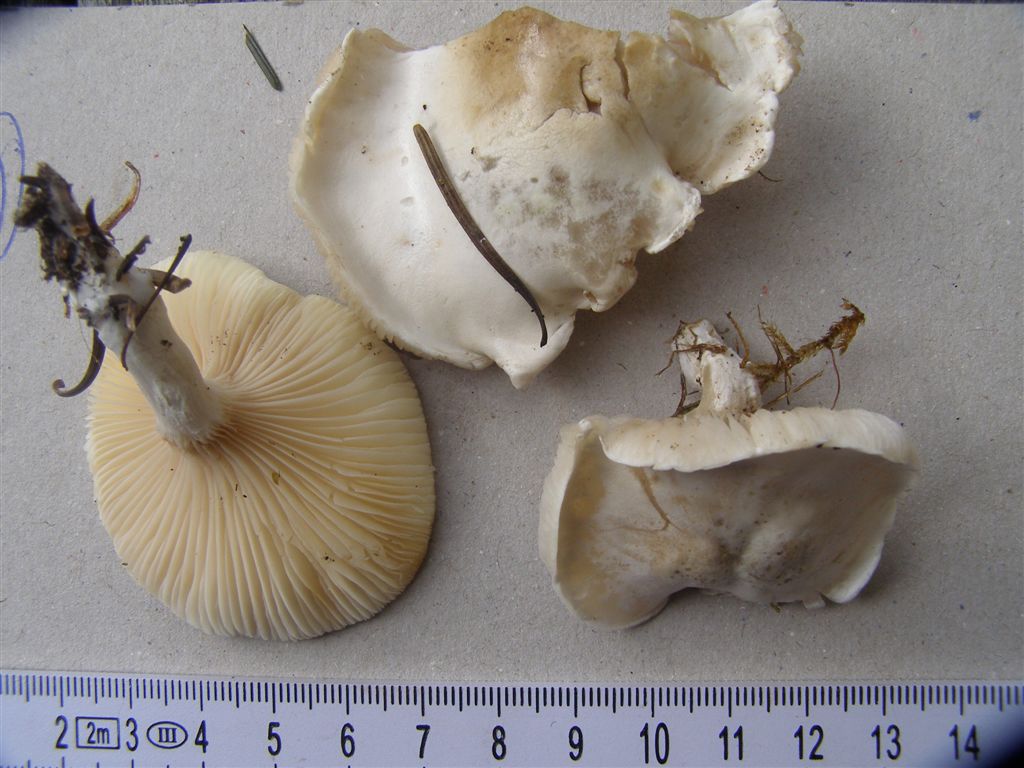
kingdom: Fungi
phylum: Basidiomycota
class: Agaricomycetes
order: Agaricales
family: Entolomataceae
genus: Clitopilus
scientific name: Clitopilus prunulus
